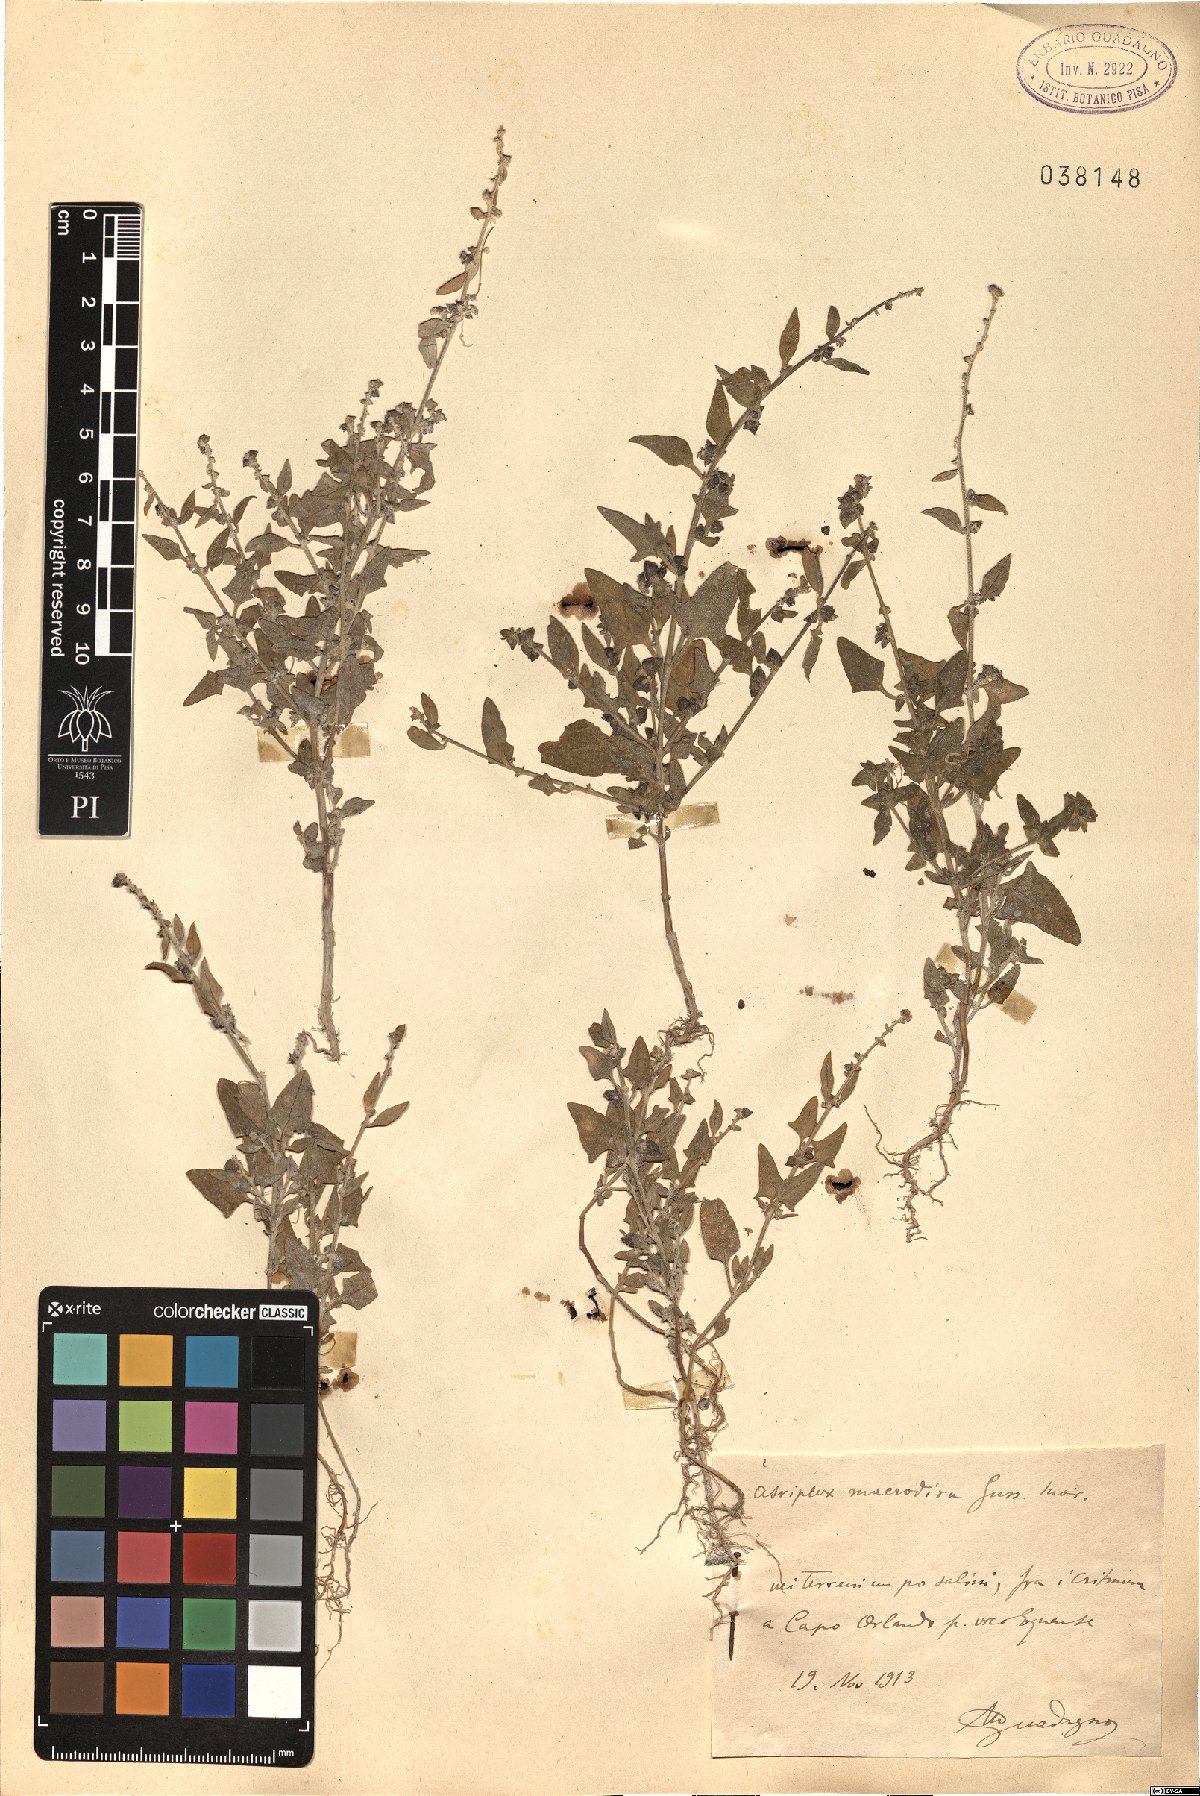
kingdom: Plantae
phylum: Tracheophyta
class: Magnoliopsida
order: Caryophyllales
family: Amaranthaceae
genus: Atriplex
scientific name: Atriplex patula
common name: Common orache
